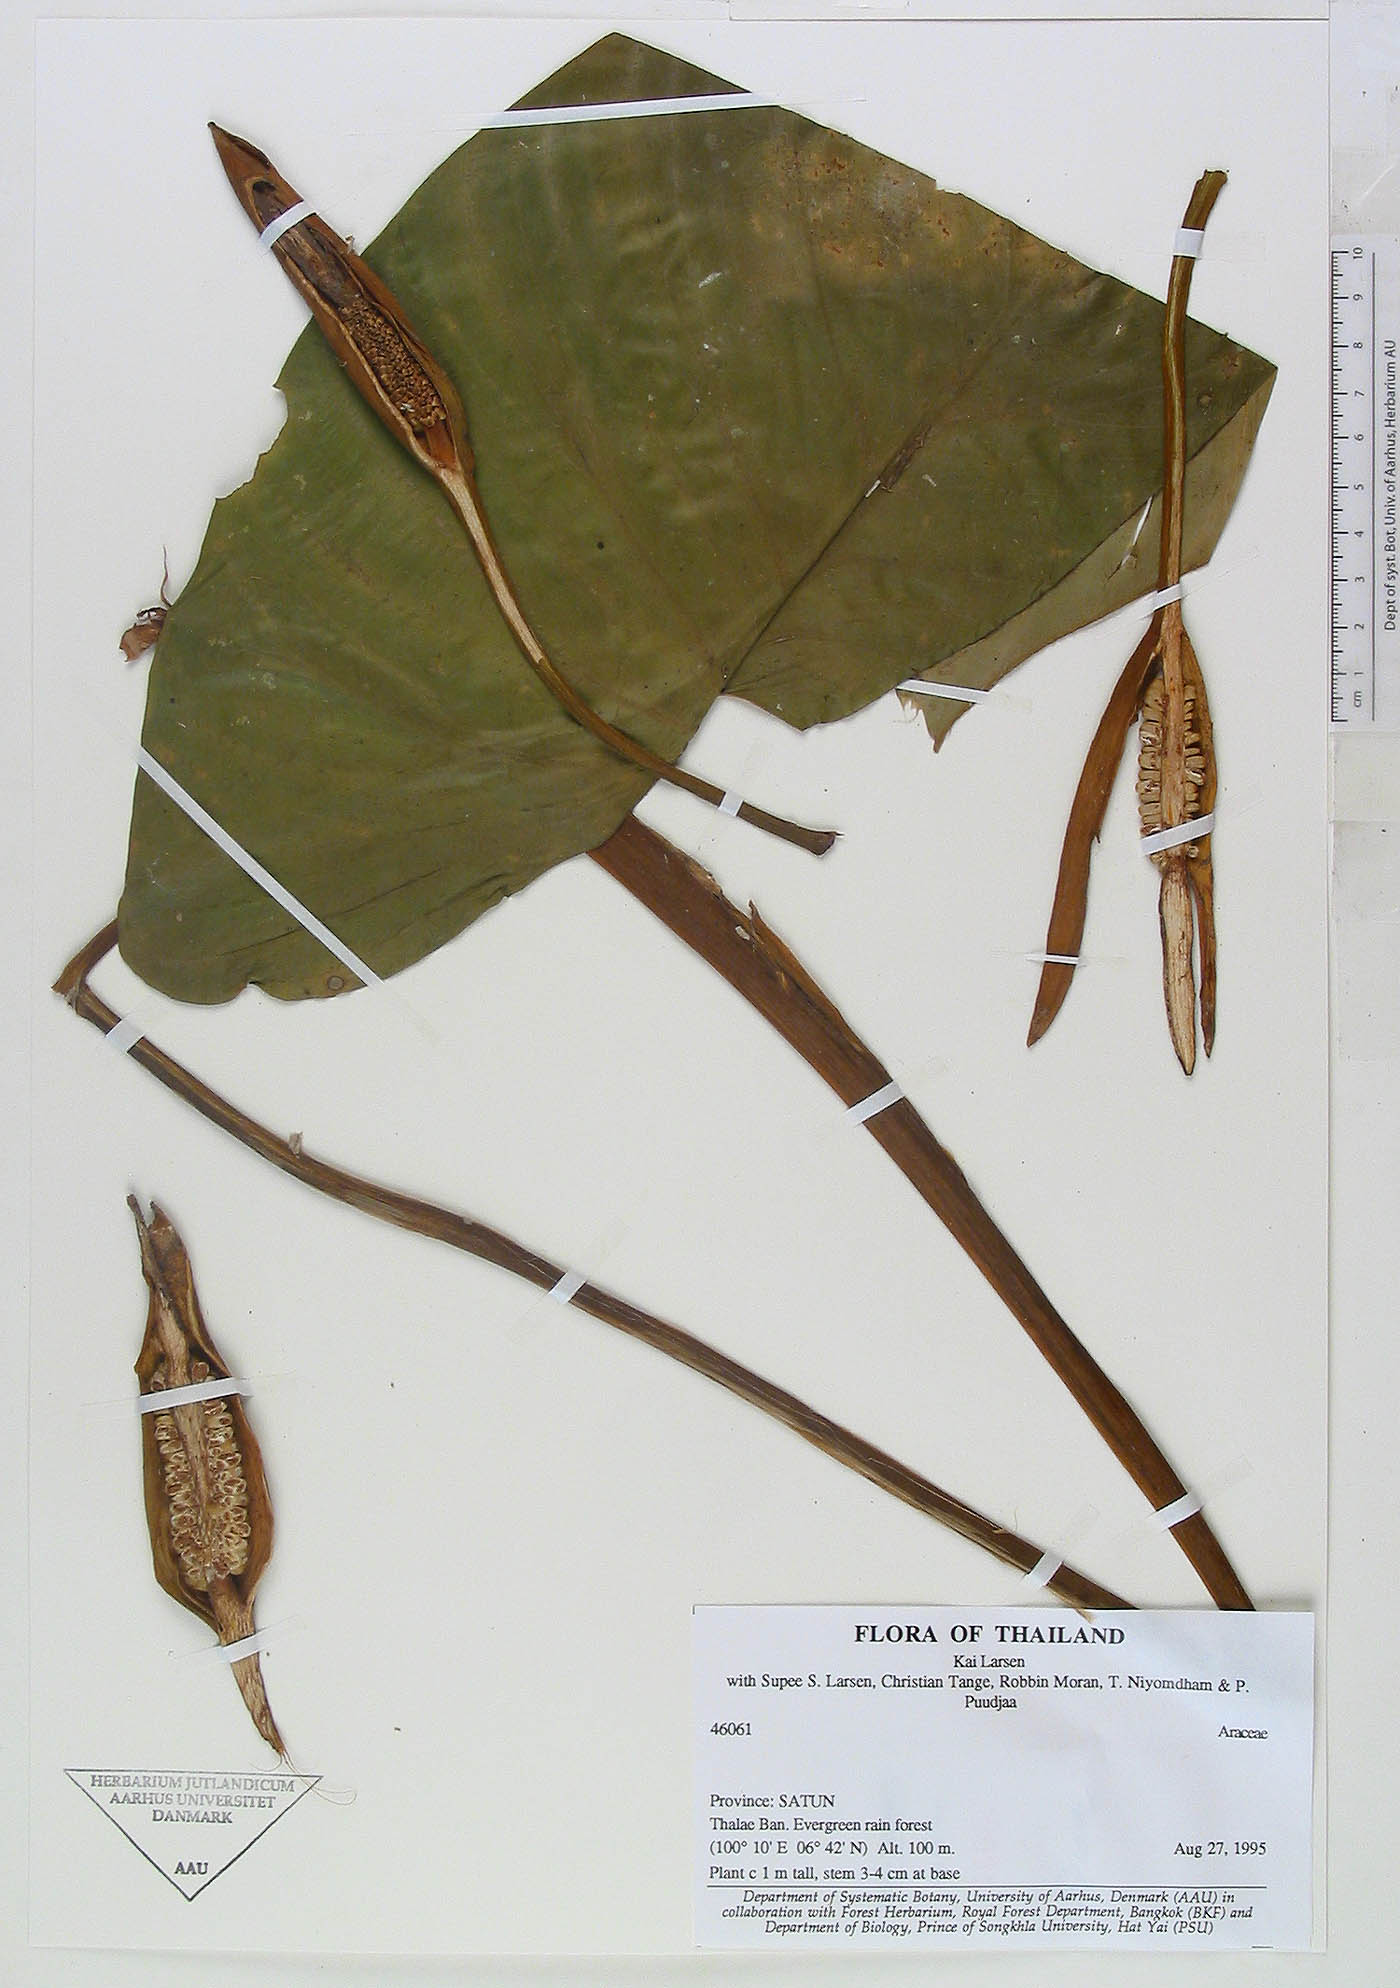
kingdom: Plantae
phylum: Tracheophyta
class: Liliopsida
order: Alismatales
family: Araceae
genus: Homalomena
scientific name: Homalomena pontederaefolia
